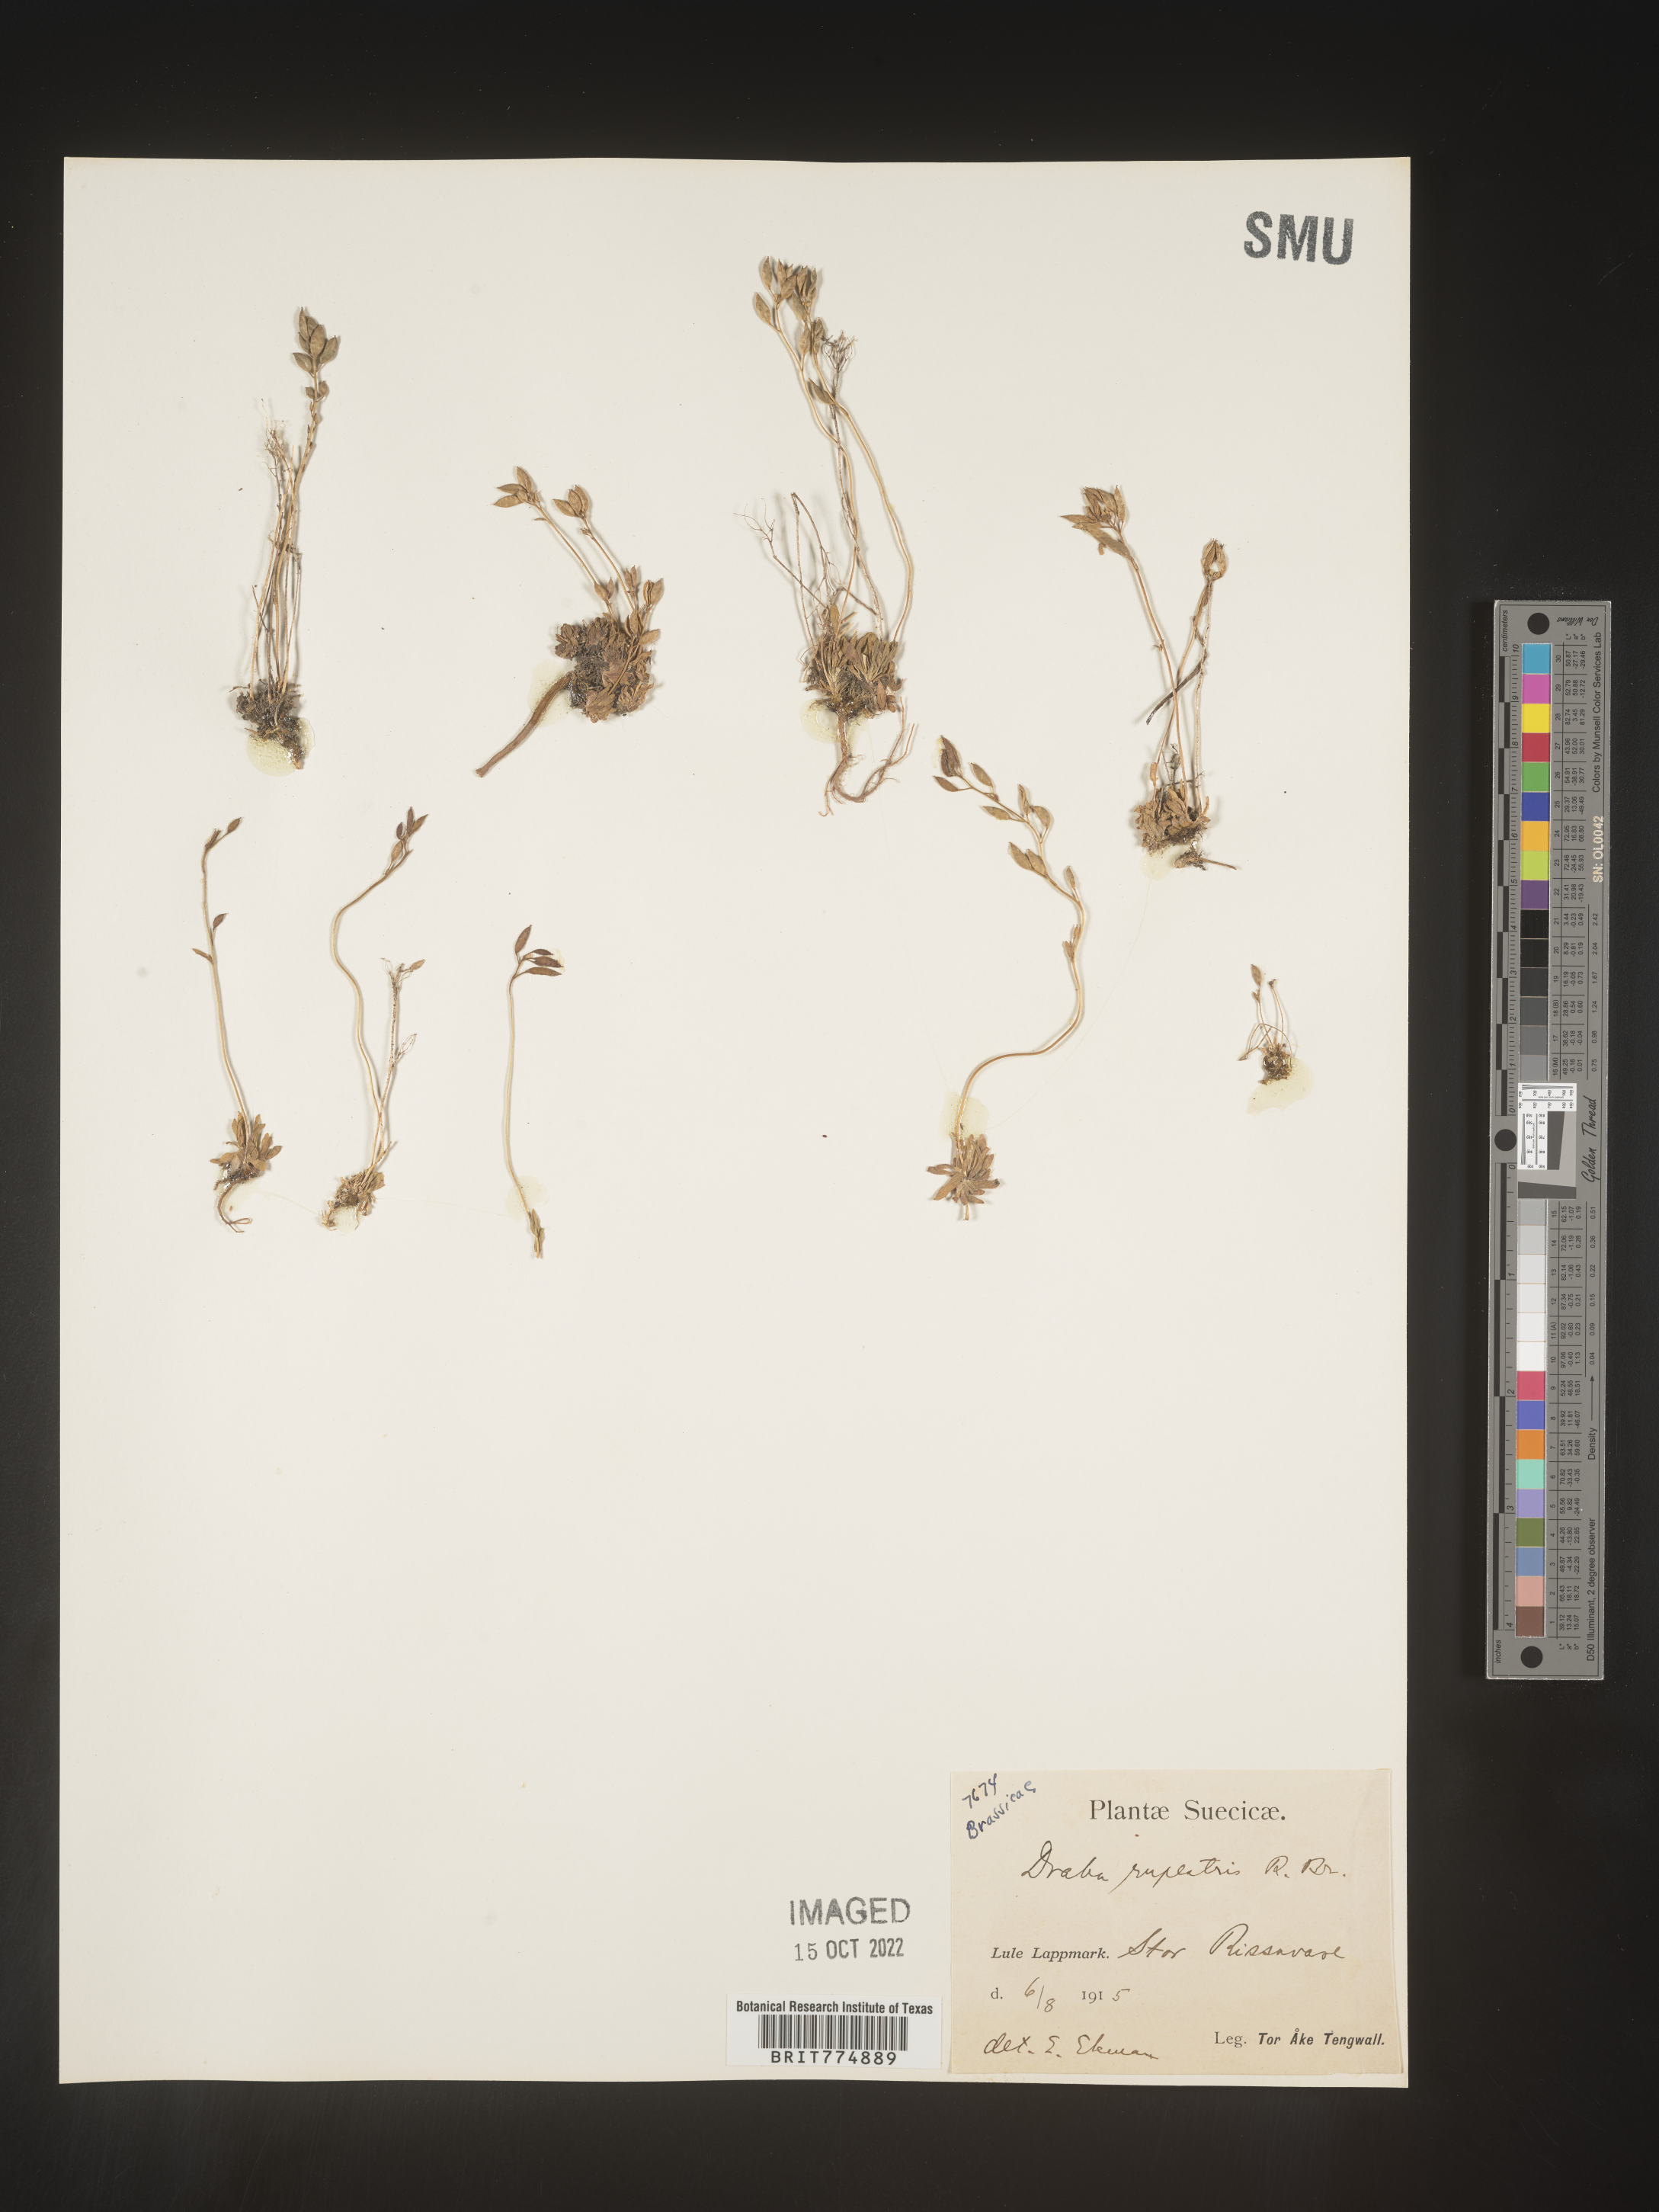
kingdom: Plantae
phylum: Tracheophyta
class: Magnoliopsida
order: Brassicales
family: Brassicaceae
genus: Draba
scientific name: Draba
